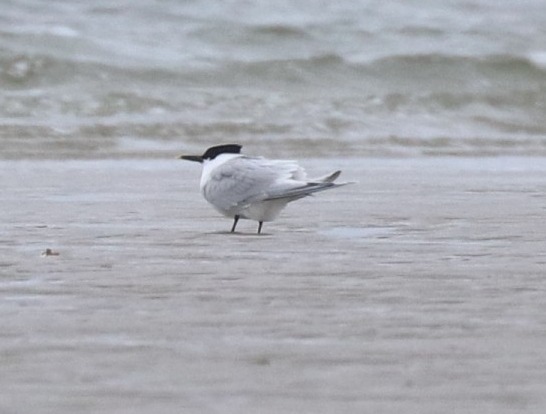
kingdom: Animalia
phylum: Chordata
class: Aves
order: Charadriiformes
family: Laridae
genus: Thalasseus
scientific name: Thalasseus sandvicensis
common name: Splitterne
